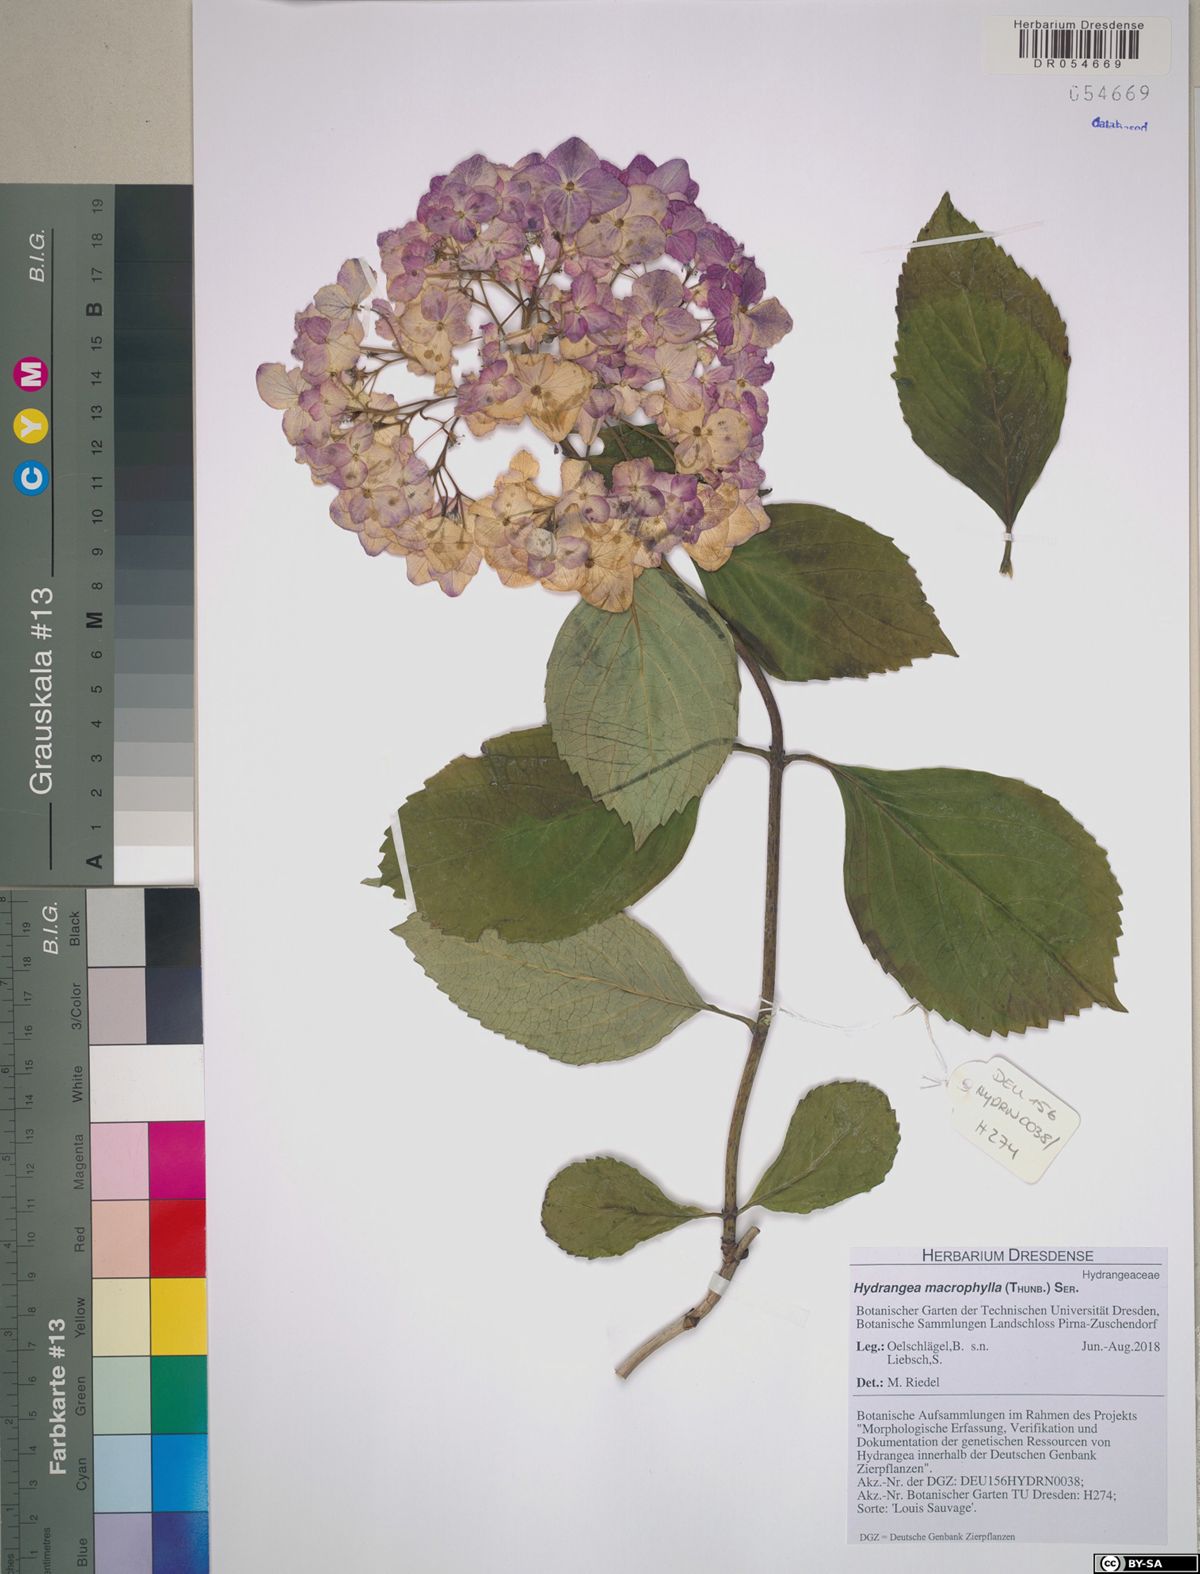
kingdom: Plantae
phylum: Tracheophyta
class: Magnoliopsida
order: Cornales
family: Hydrangeaceae
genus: Hydrangea
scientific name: Hydrangea macrophylla
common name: Hydrangea
